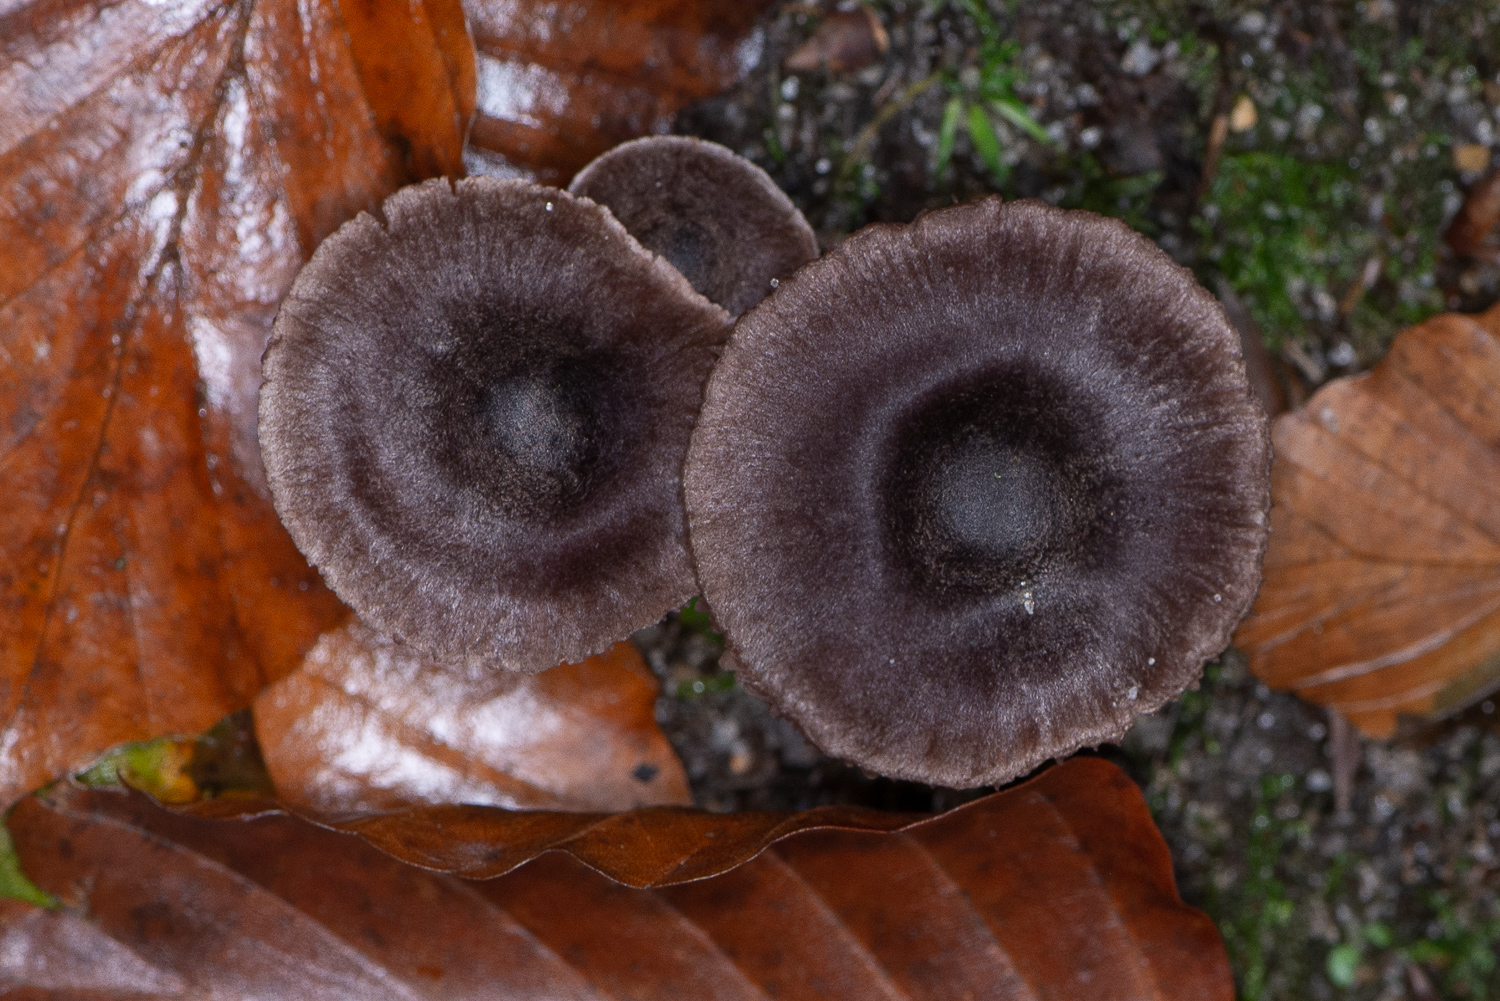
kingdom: Fungi
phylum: Basidiomycota
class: Agaricomycetes
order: Agaricales
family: Cortinariaceae
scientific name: Cortinariaceae
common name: slørhatfamilien
